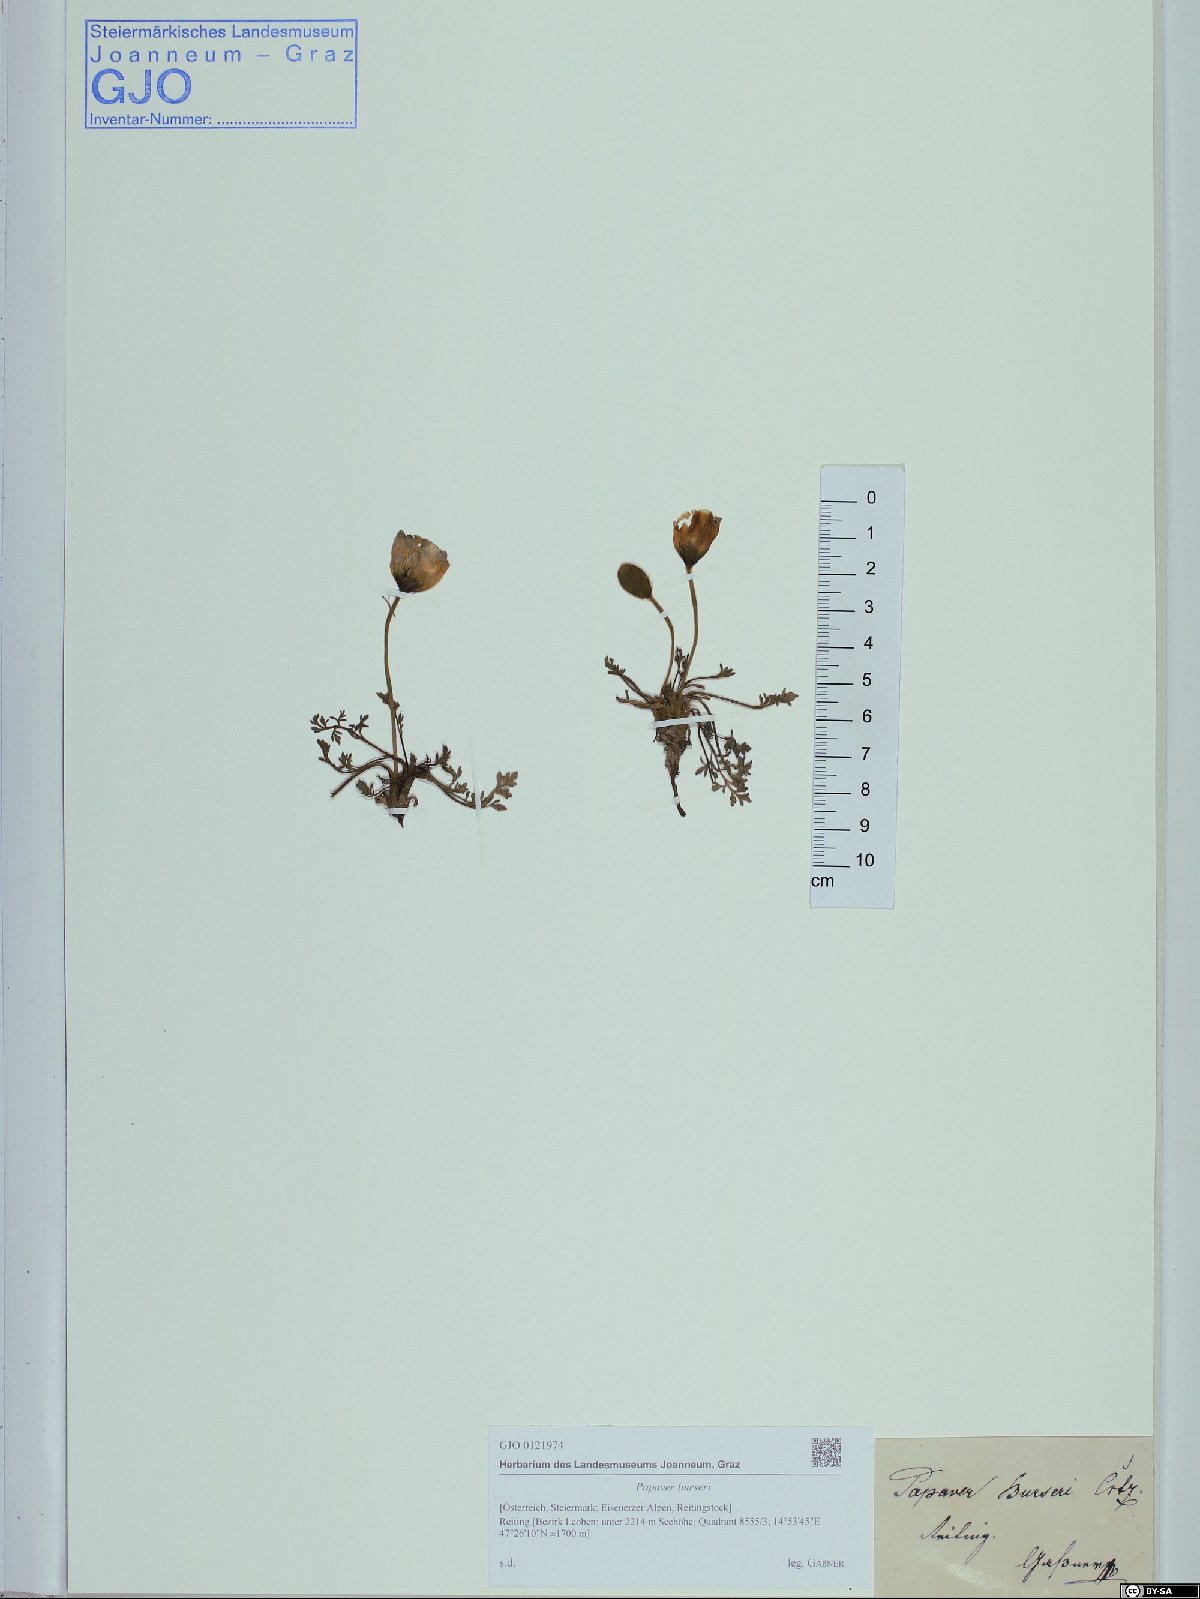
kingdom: Plantae
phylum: Tracheophyta
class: Magnoliopsida
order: Ranunculales
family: Papaveraceae
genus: Papaver
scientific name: Papaver alpinum
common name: Austrian poppy
